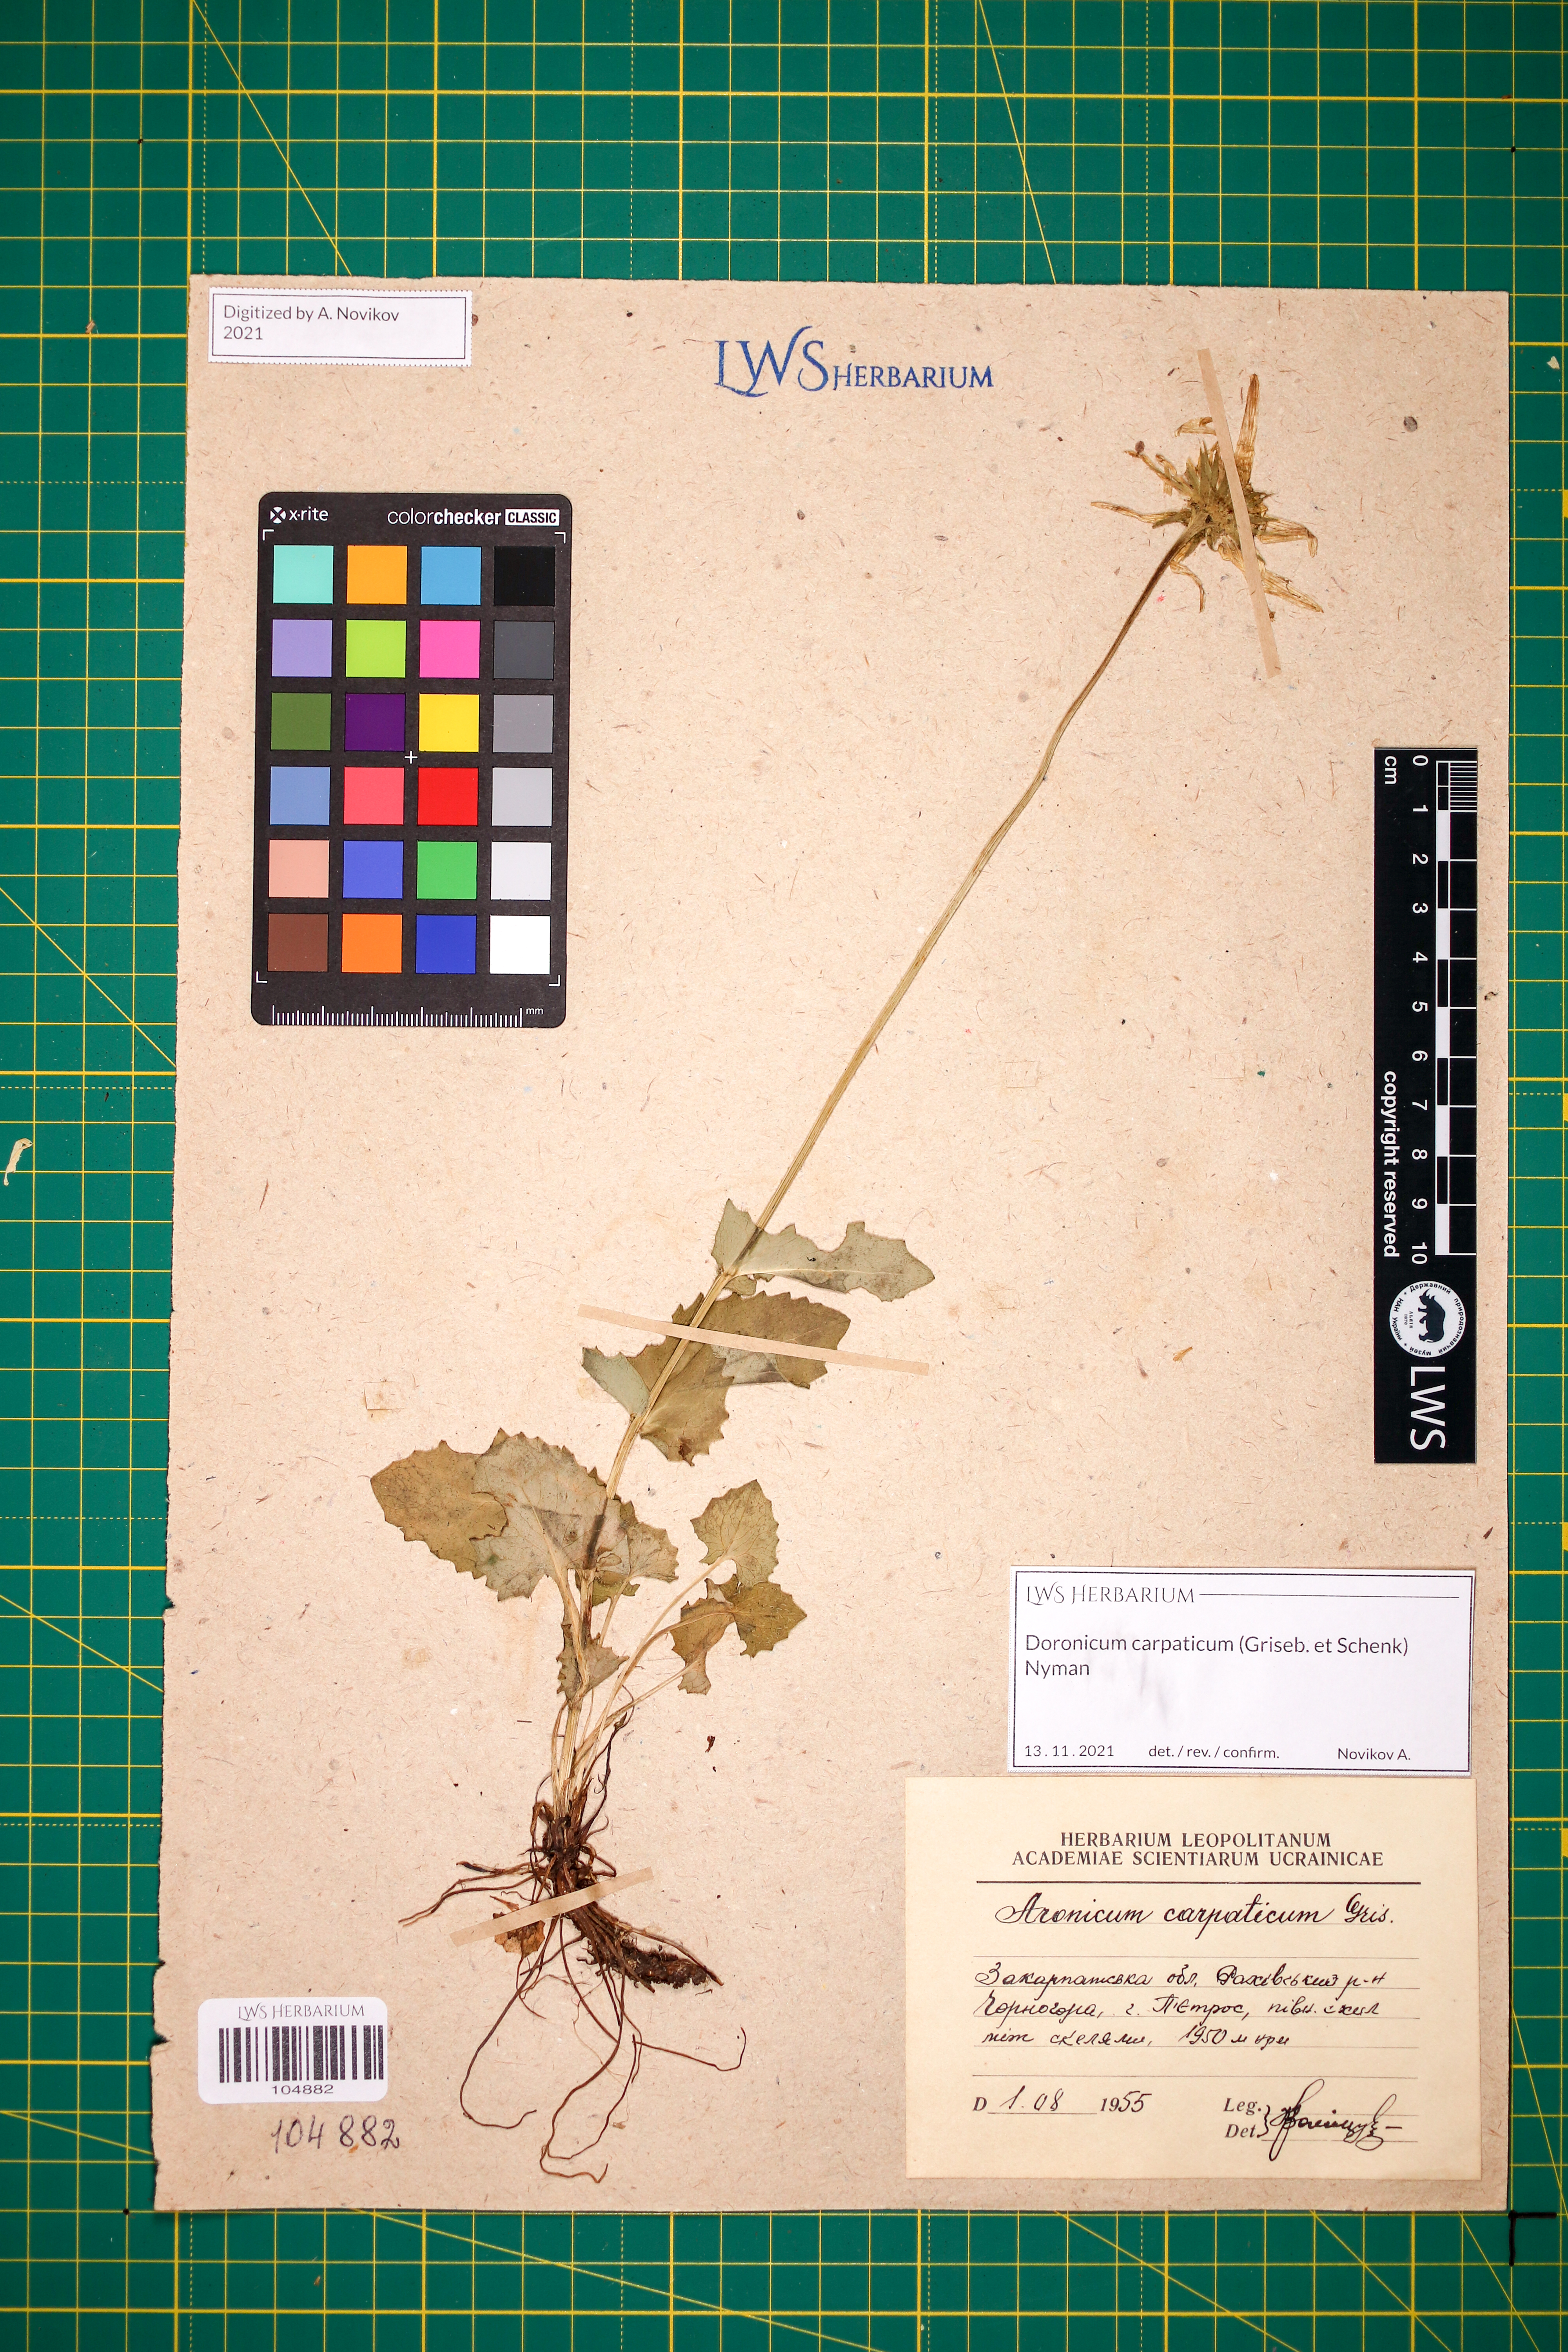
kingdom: Plantae
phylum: Tracheophyta
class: Magnoliopsida
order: Asterales
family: Asteraceae
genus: Doronicum
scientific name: Doronicum carpaticum
